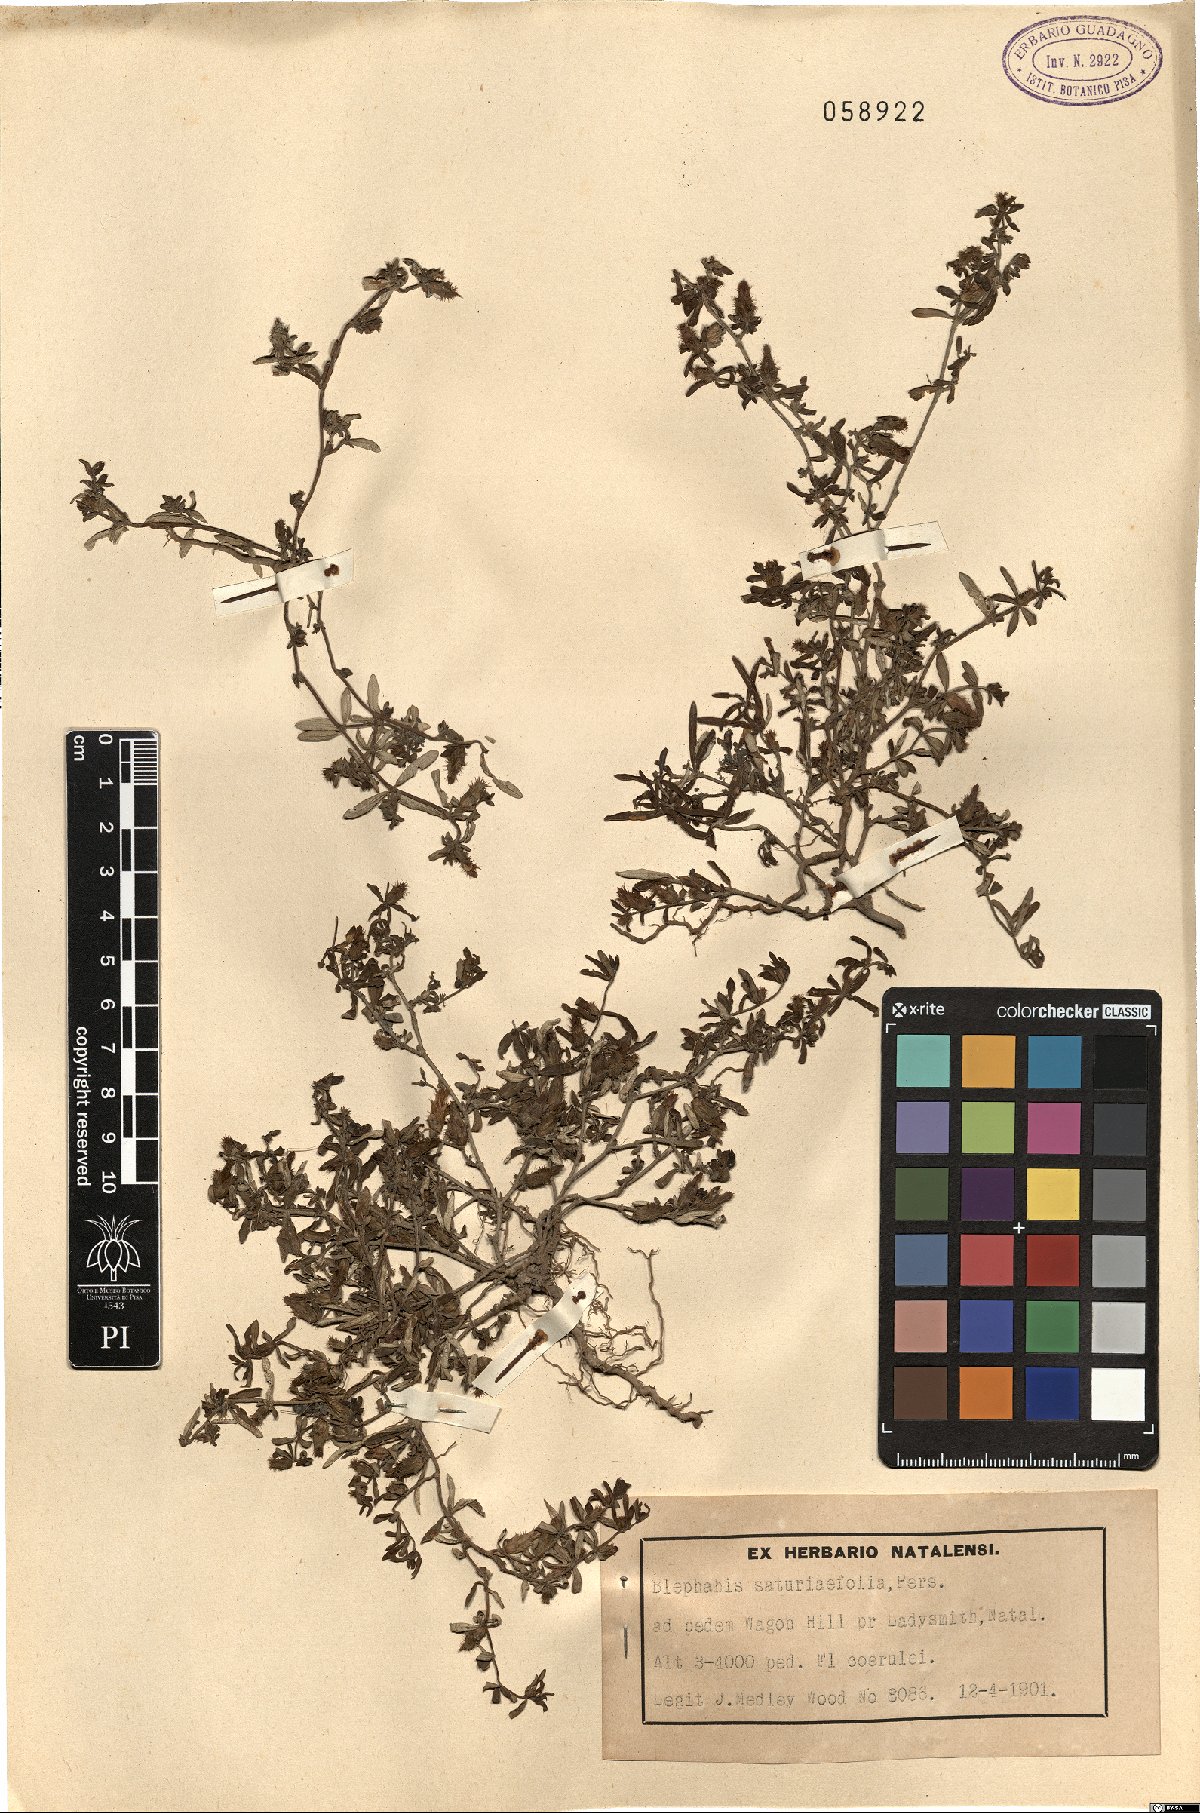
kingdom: Plantae
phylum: Tracheophyta
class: Magnoliopsida
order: Lamiales
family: Acanthaceae
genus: Blepharis
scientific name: Blepharis integrifolia
